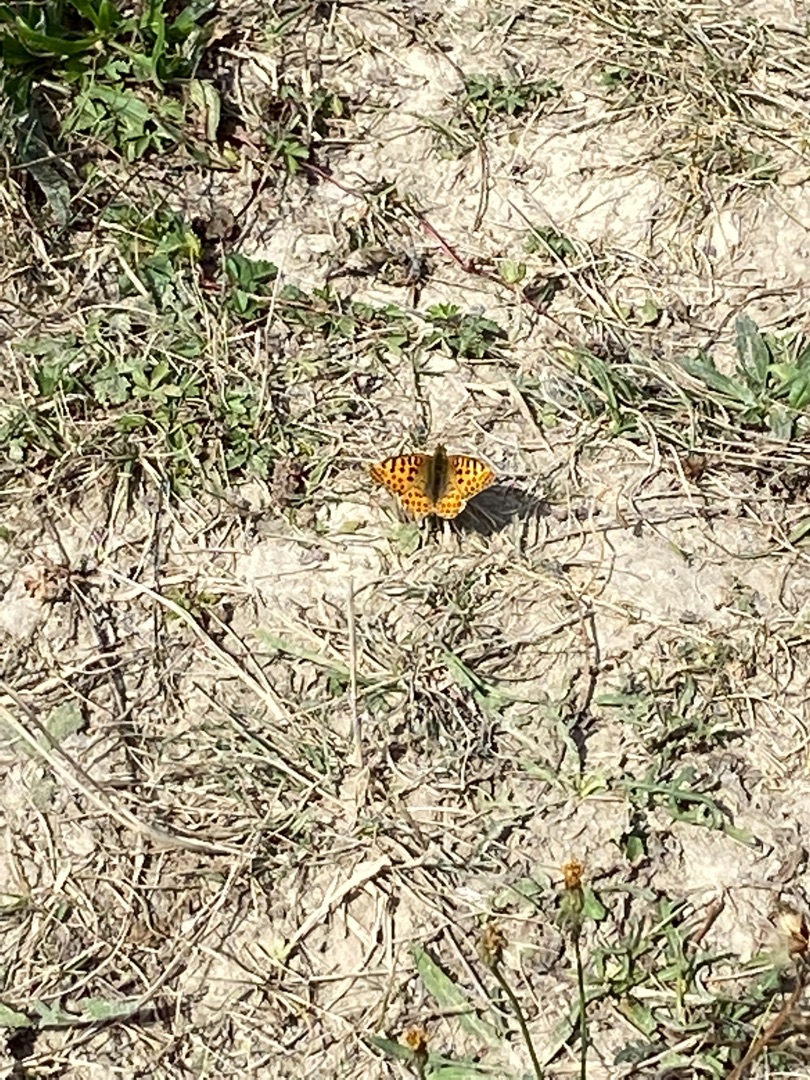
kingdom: Animalia
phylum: Arthropoda
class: Insecta
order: Lepidoptera
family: Nymphalidae
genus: Issoria
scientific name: Issoria lathonia
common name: Storplettet perlemorsommerfugl
